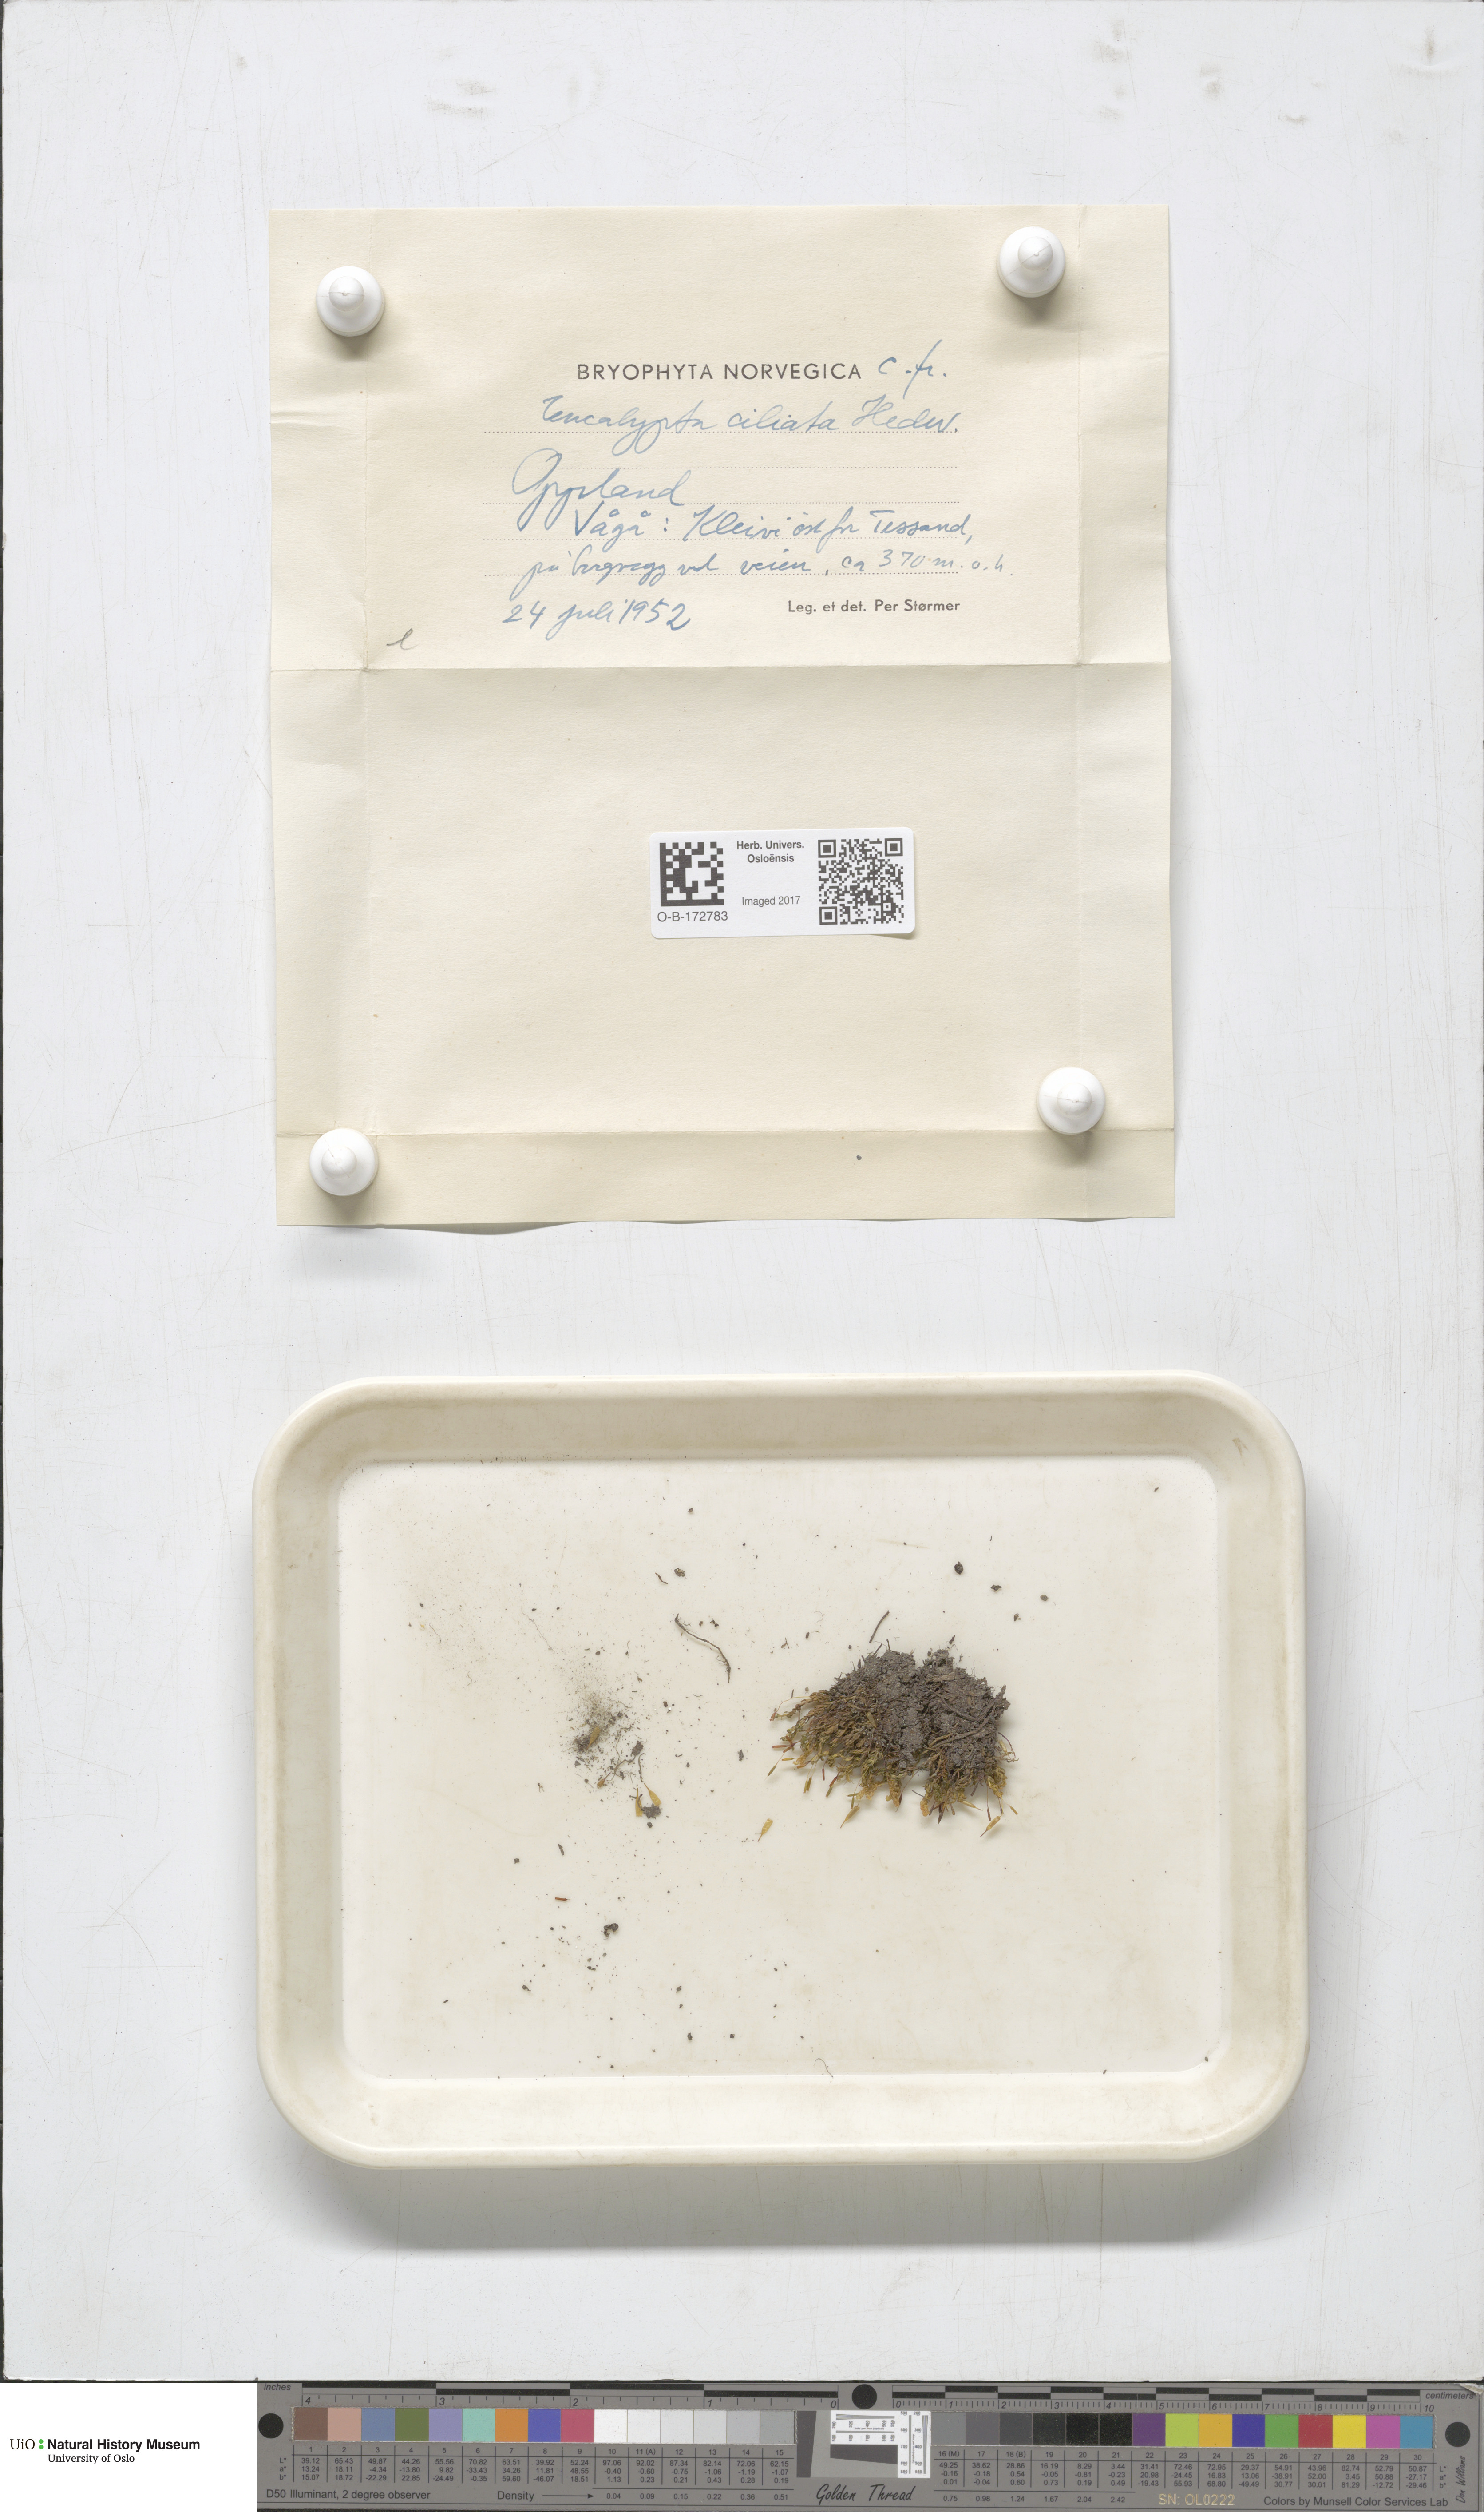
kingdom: Plantae
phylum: Bryophyta
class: Bryopsida
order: Encalyptales
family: Encalyptaceae
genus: Encalypta
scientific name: Encalypta ciliata
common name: Fringed extinguisher-moss
